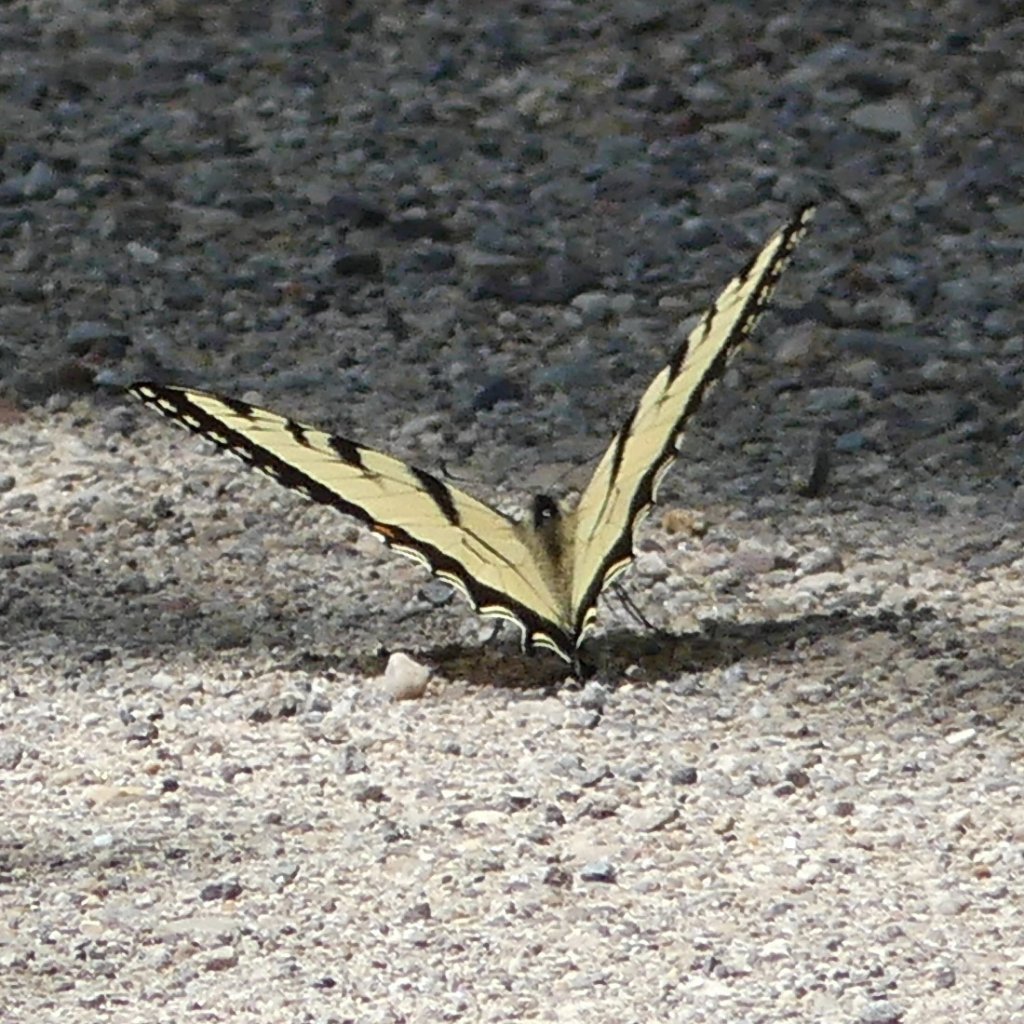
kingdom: Animalia
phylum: Arthropoda
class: Insecta
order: Lepidoptera
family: Papilionidae
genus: Pterourus
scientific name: Pterourus glaucus
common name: Eastern Tiger Swallowtail
